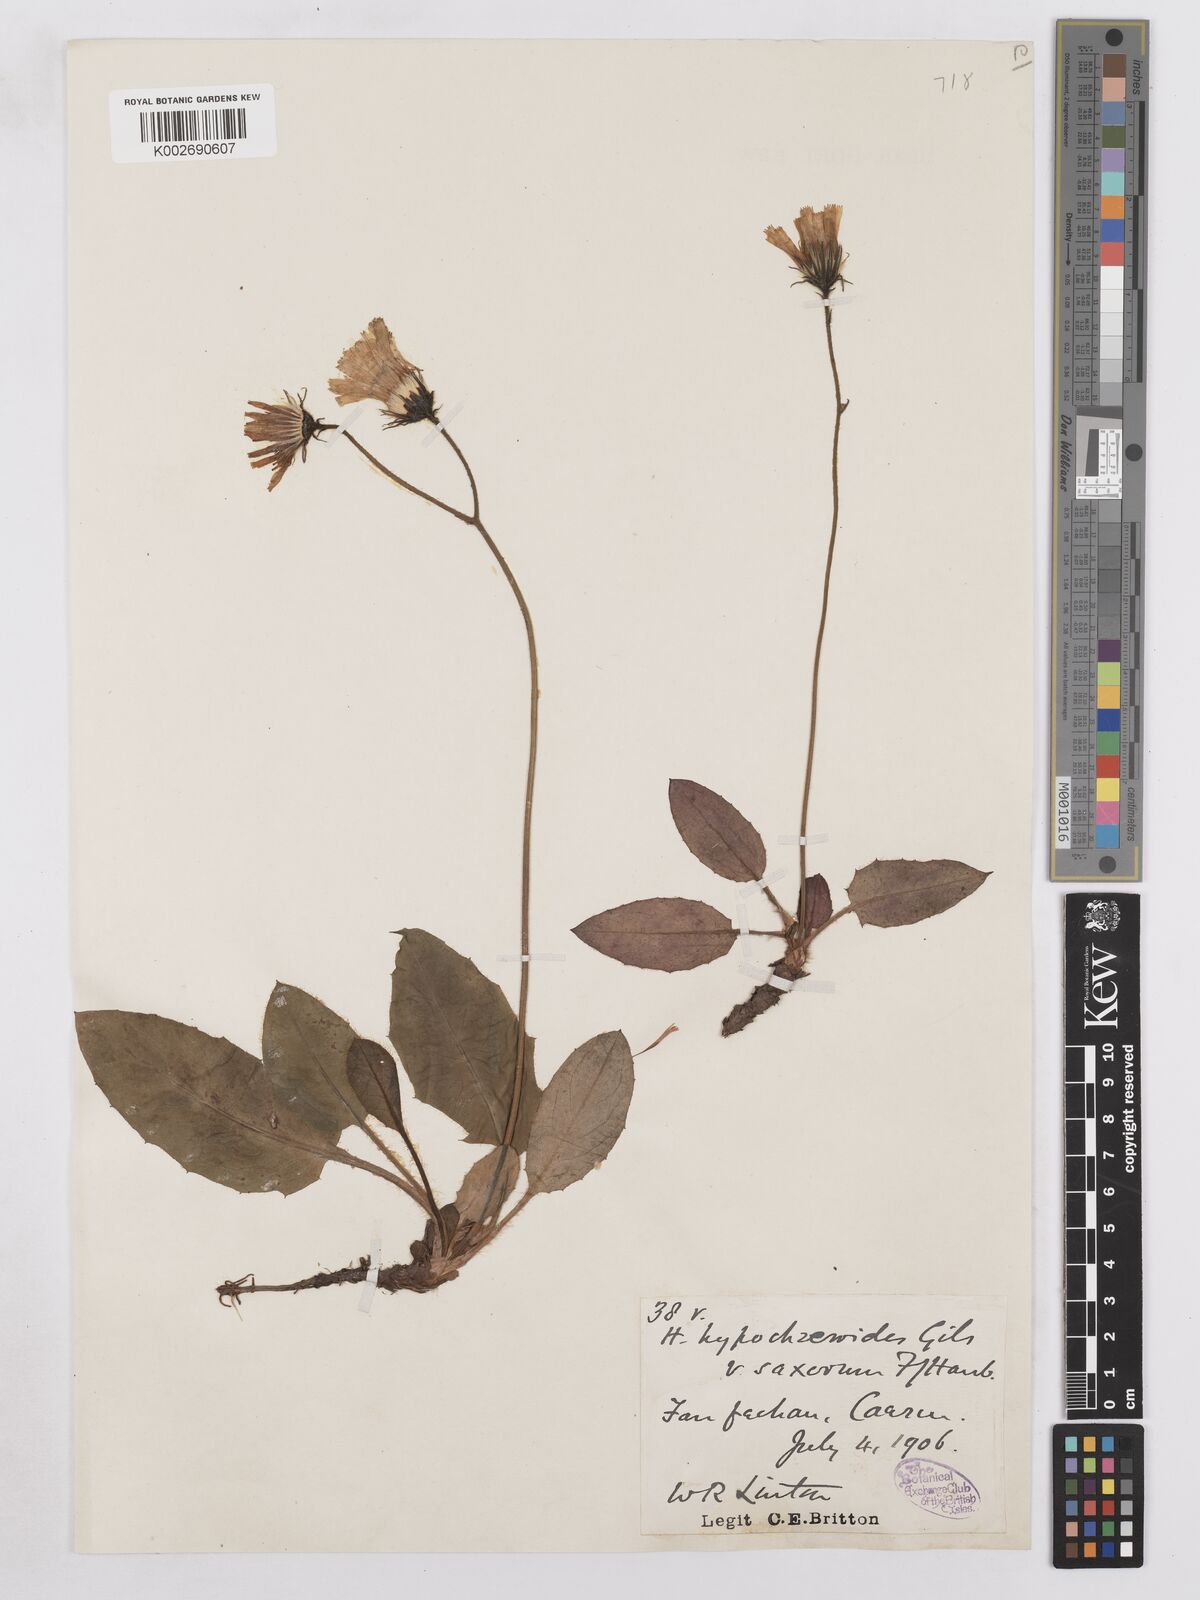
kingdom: Plantae
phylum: Tracheophyta
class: Magnoliopsida
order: Asterales
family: Asteraceae
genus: Hieracium
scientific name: Hieracium saxorum
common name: Rock hawkweed
